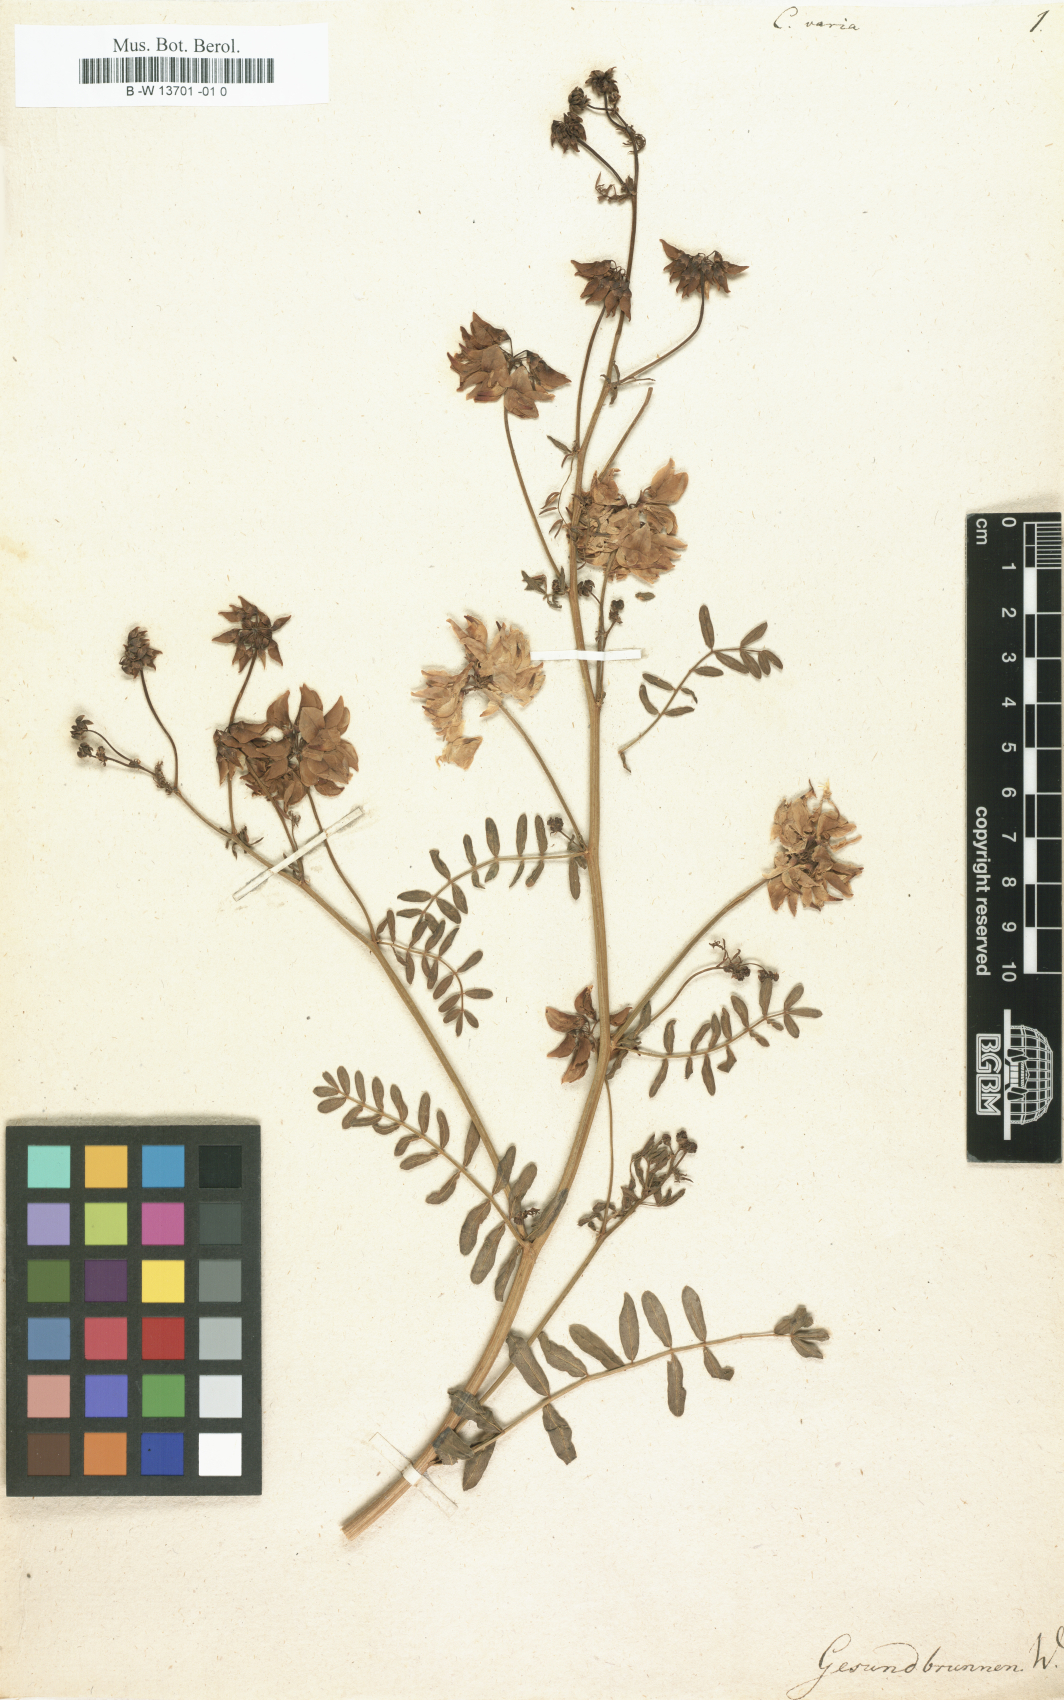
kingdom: Plantae
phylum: Tracheophyta
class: Magnoliopsida
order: Fabales
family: Fabaceae
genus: Coronilla
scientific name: Coronilla varia
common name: Crownvetch
